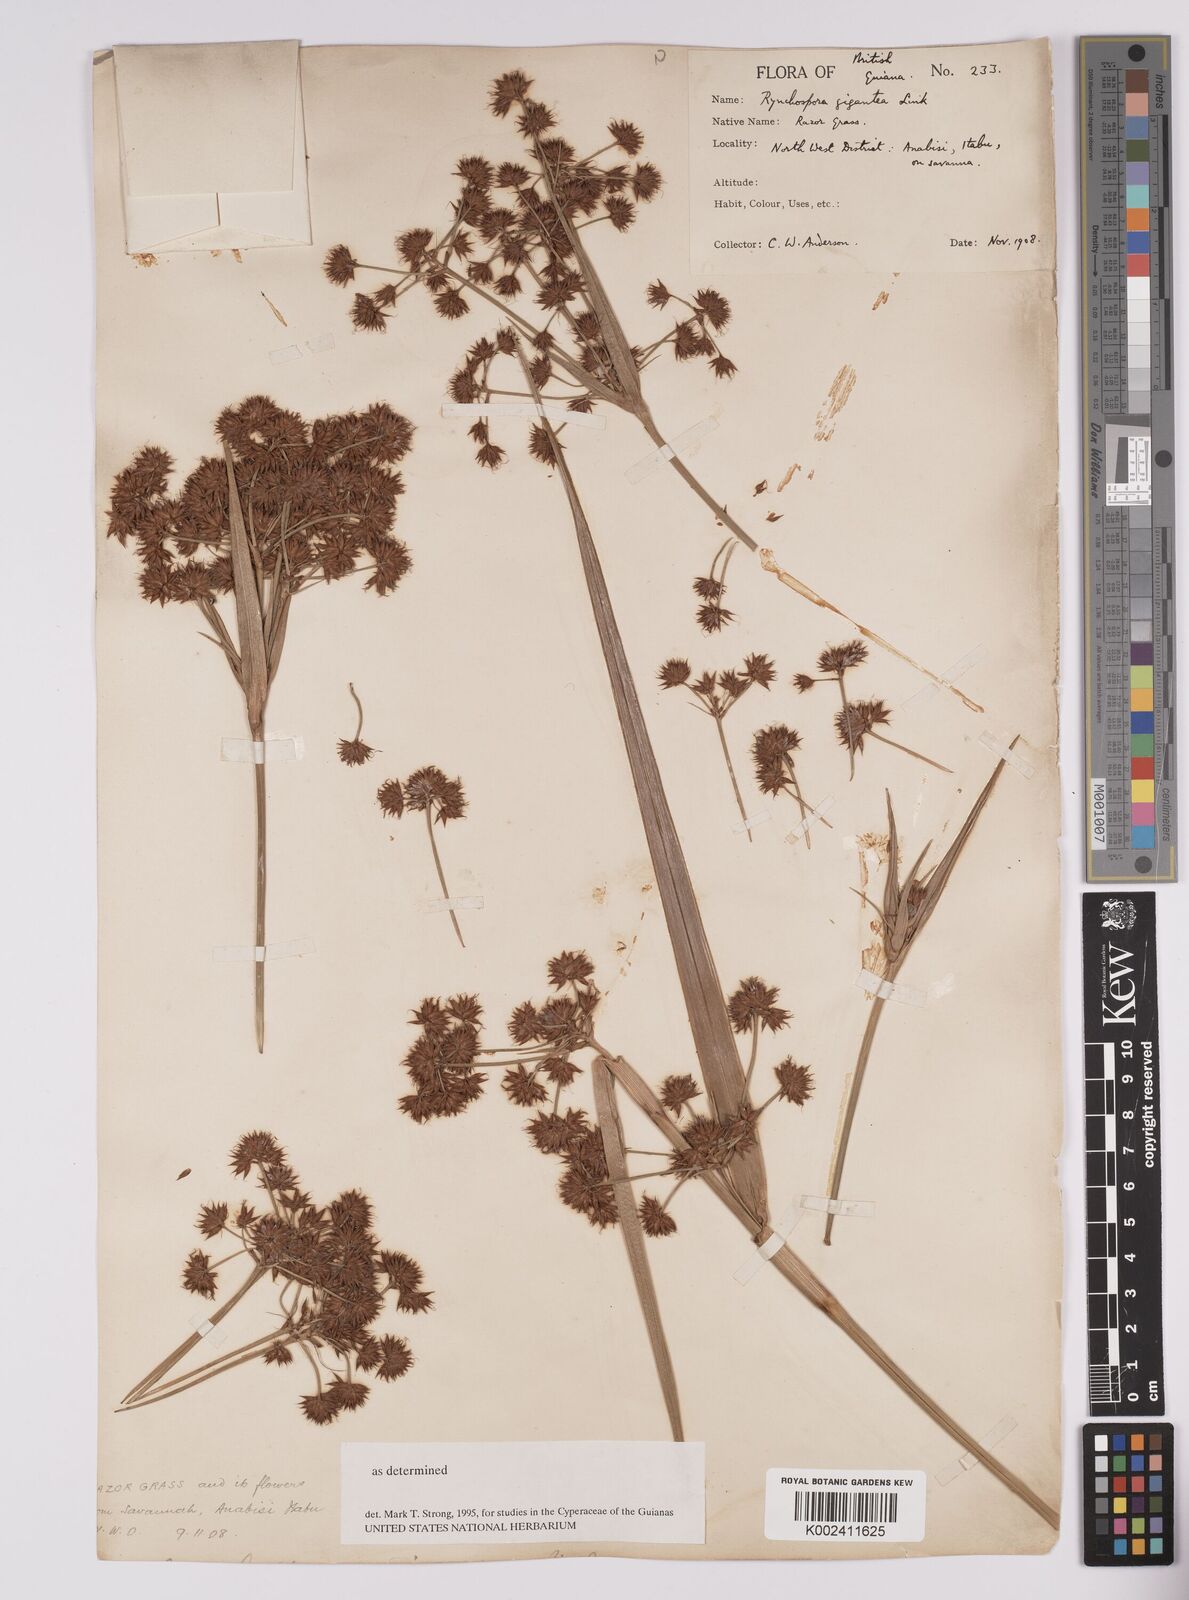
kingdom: Plantae
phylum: Tracheophyta
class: Liliopsida
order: Poales
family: Cyperaceae
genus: Rhynchospora
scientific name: Rhynchospora gigantea
